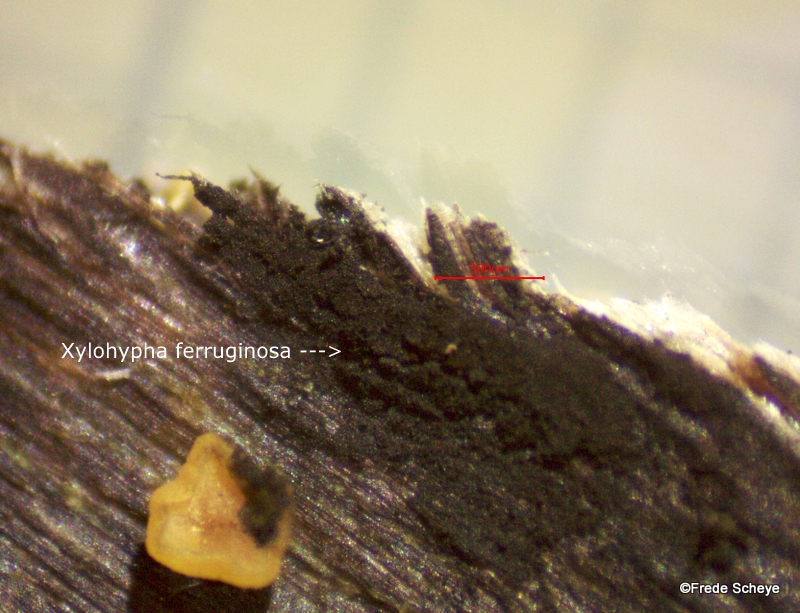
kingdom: Fungi
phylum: Ascomycota
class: Eurotiomycetes
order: Chaetothyriales
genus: Xylohypha
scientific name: Xylohypha ferruginosa
